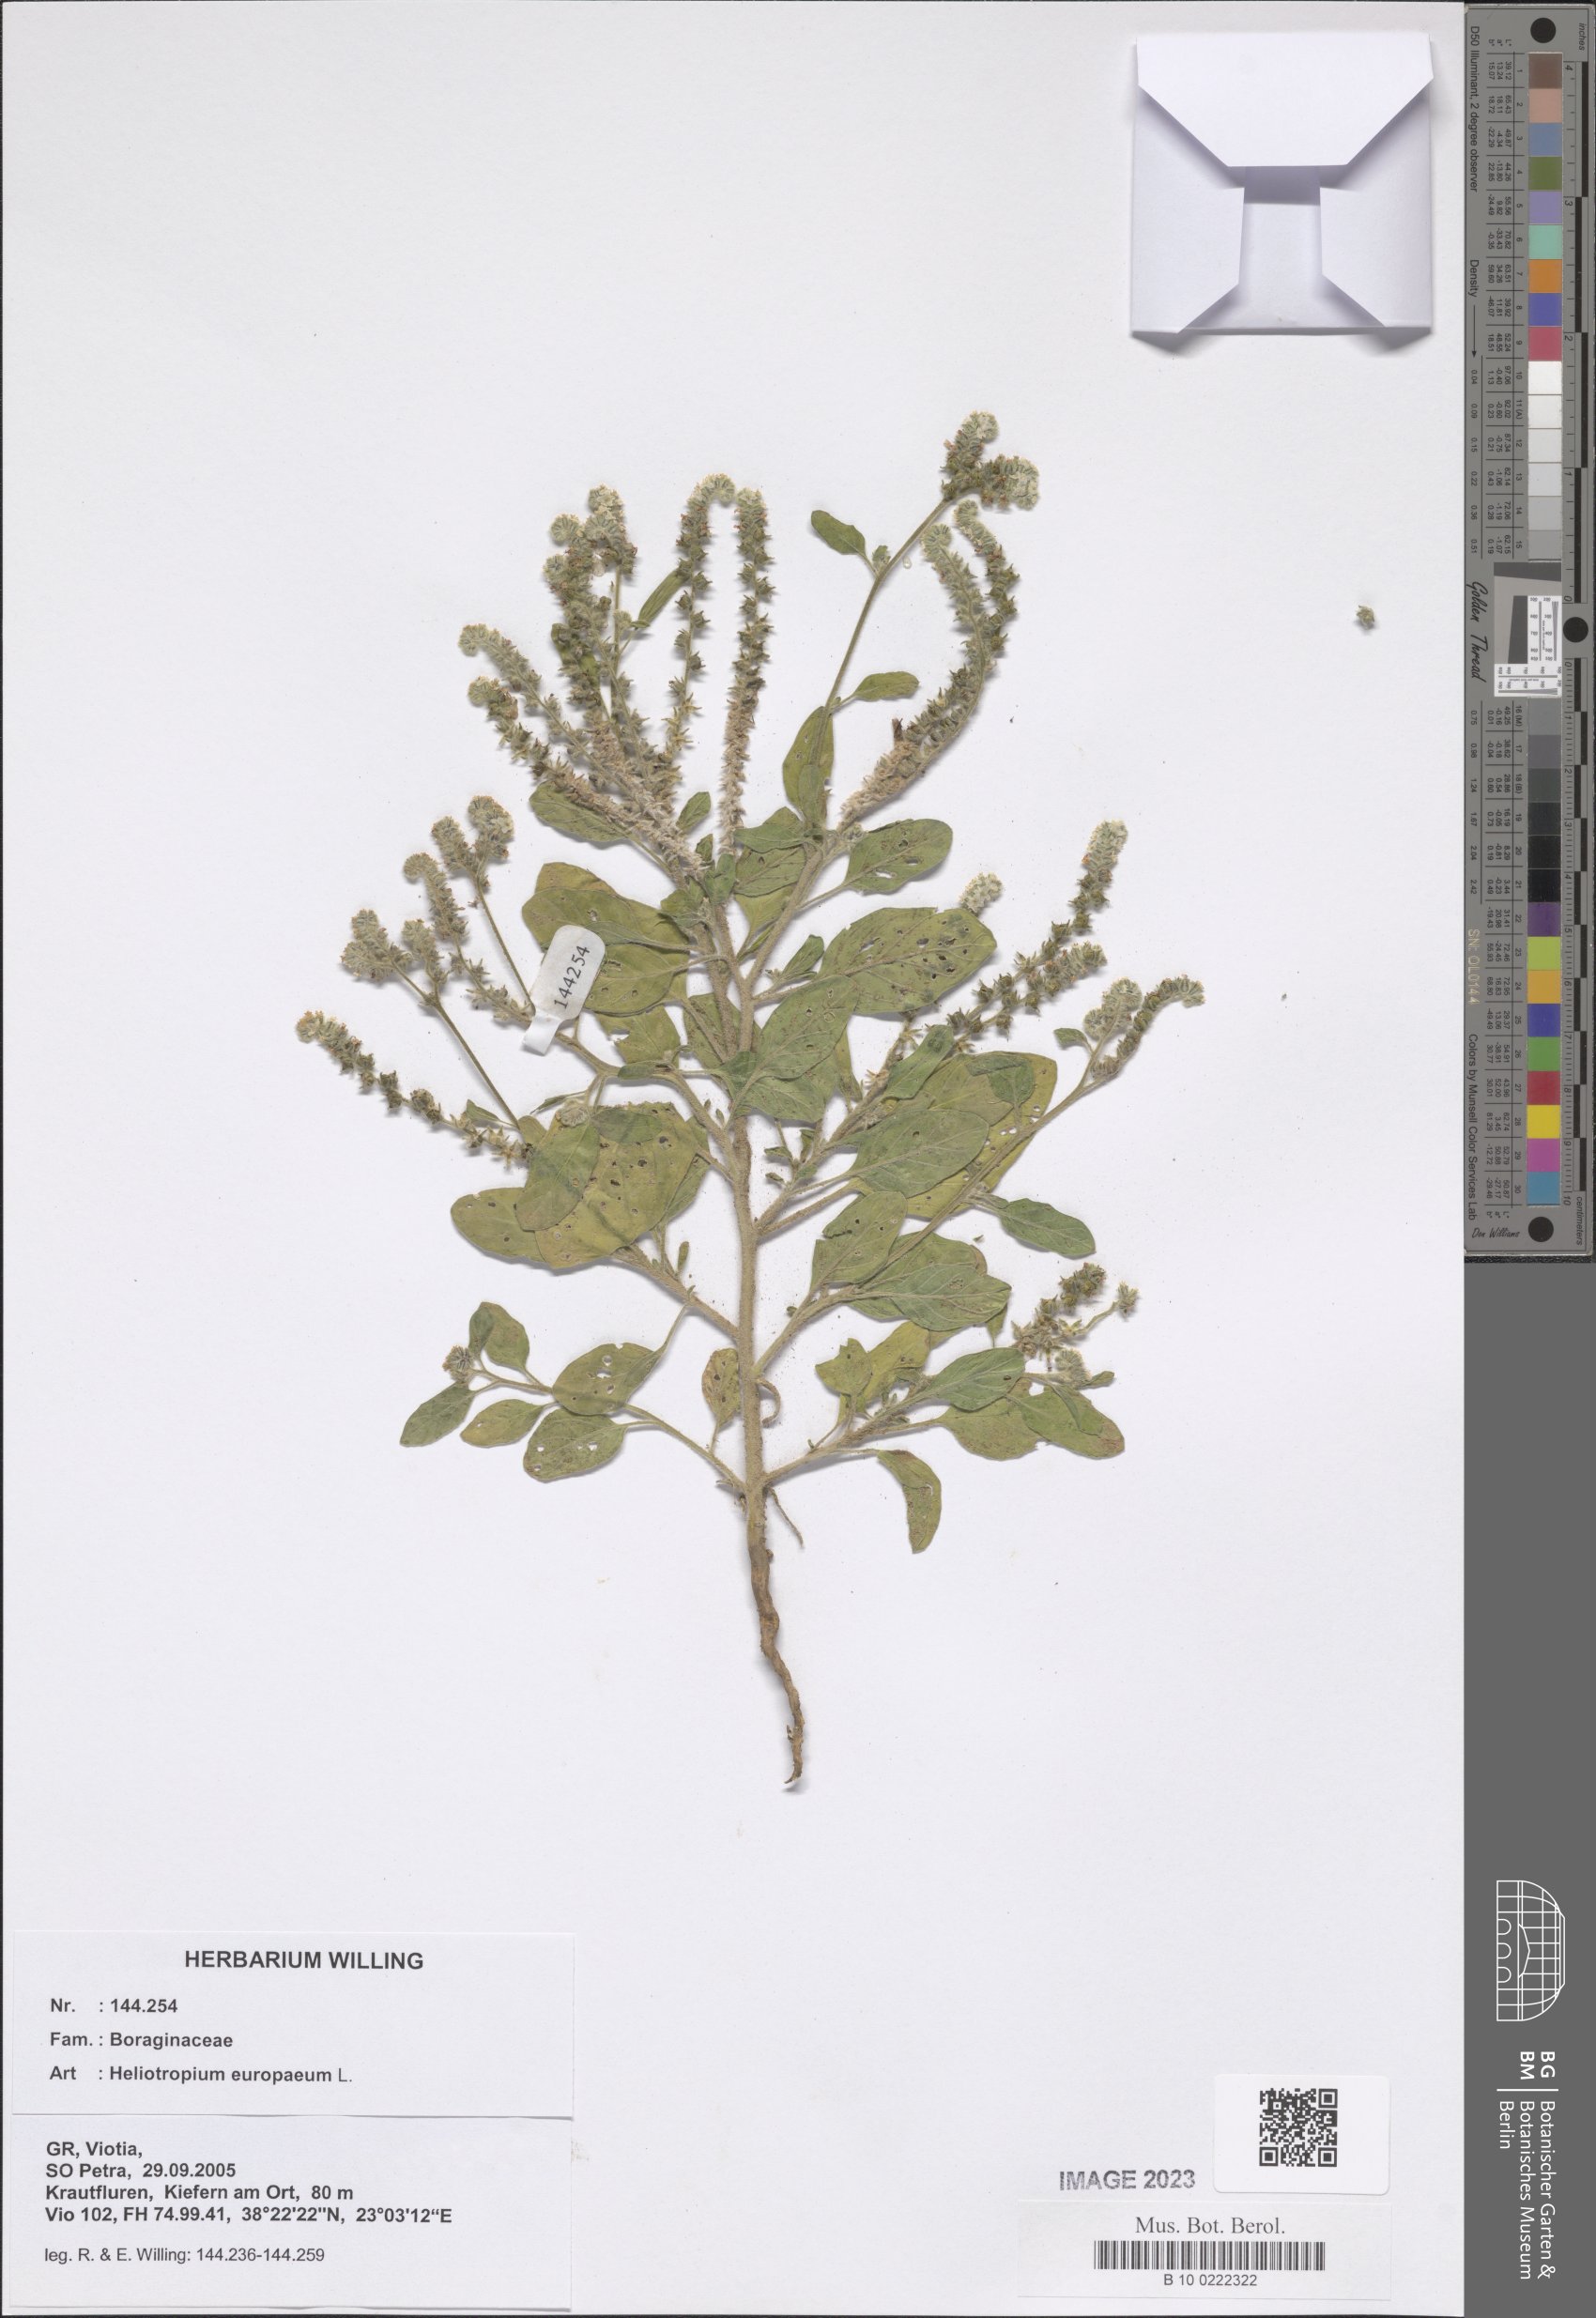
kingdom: Plantae
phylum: Tracheophyta
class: Magnoliopsida
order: Boraginales
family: Heliotropiaceae
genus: Heliotropium
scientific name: Heliotropium europaeum
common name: European heliotrope
